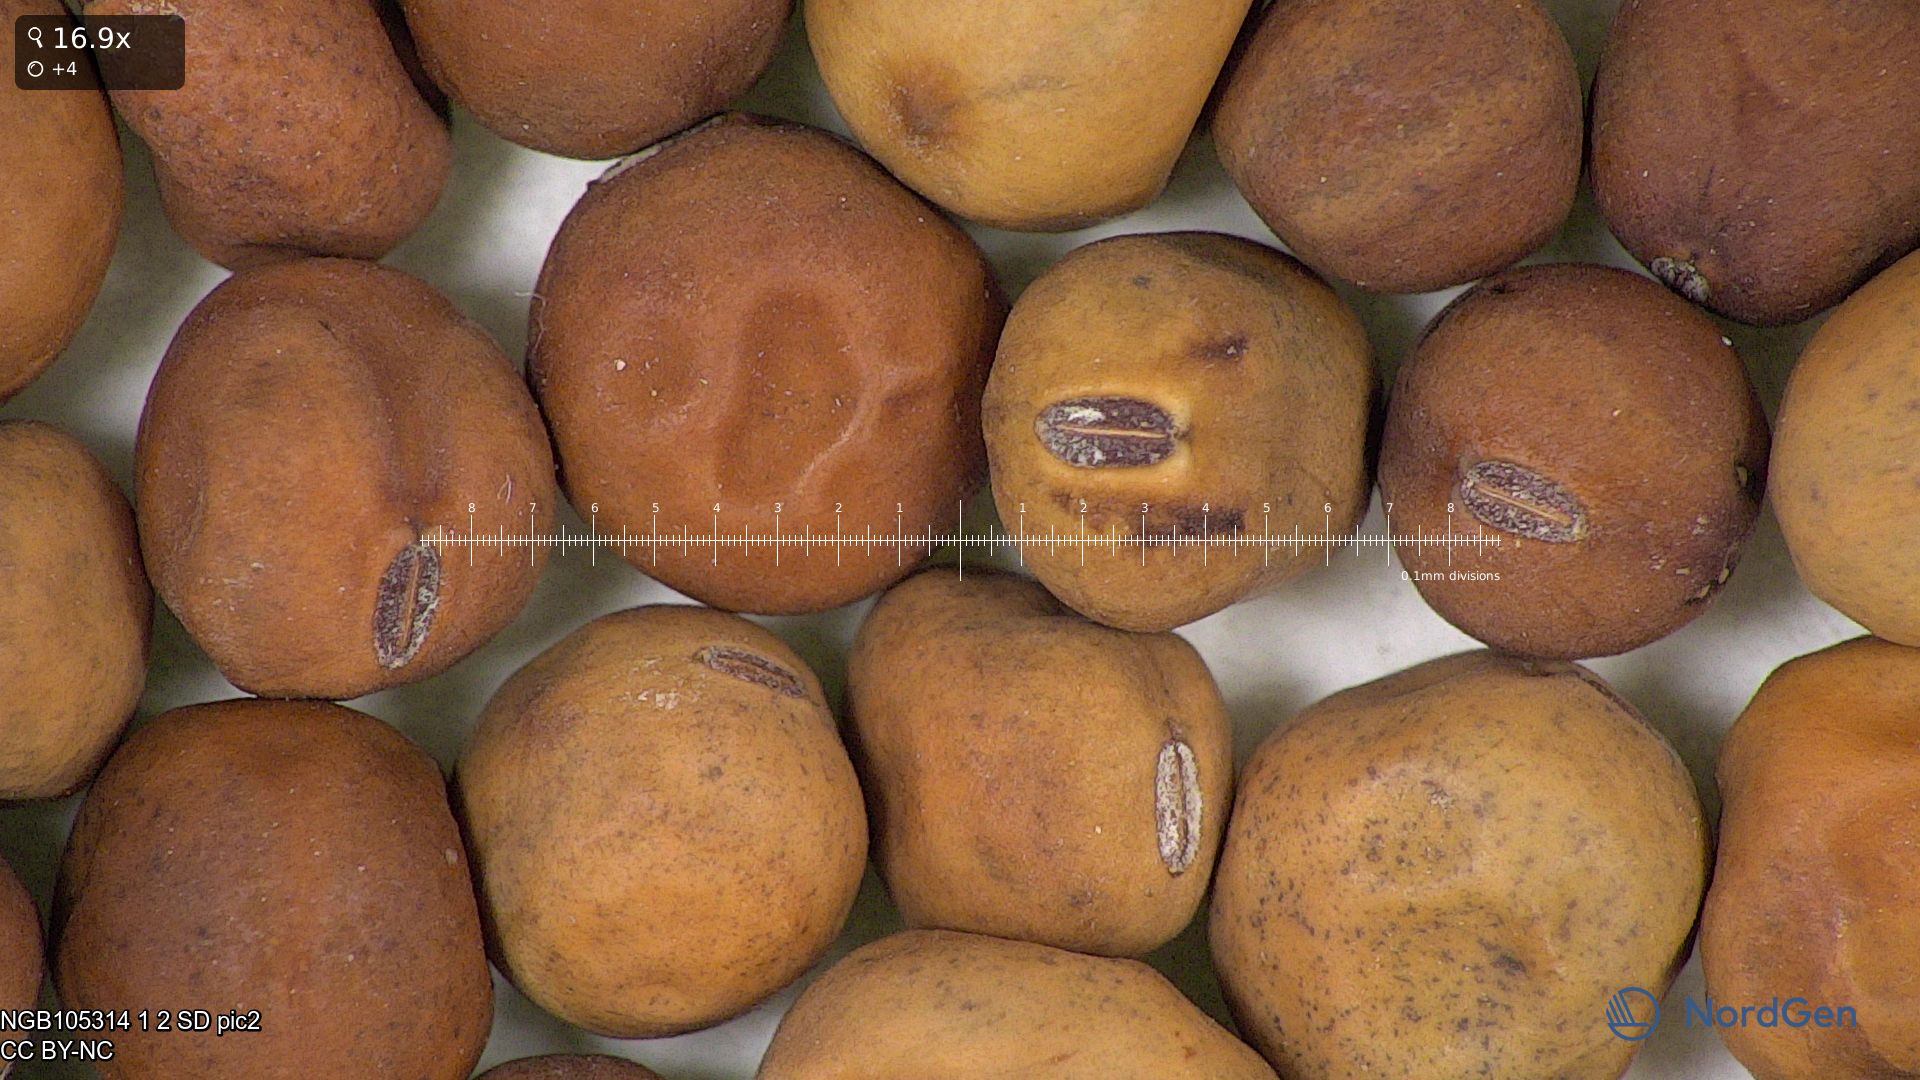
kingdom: Plantae
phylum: Tracheophyta
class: Magnoliopsida
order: Fabales
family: Fabaceae
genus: Lathyrus
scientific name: Lathyrus oleraceus
